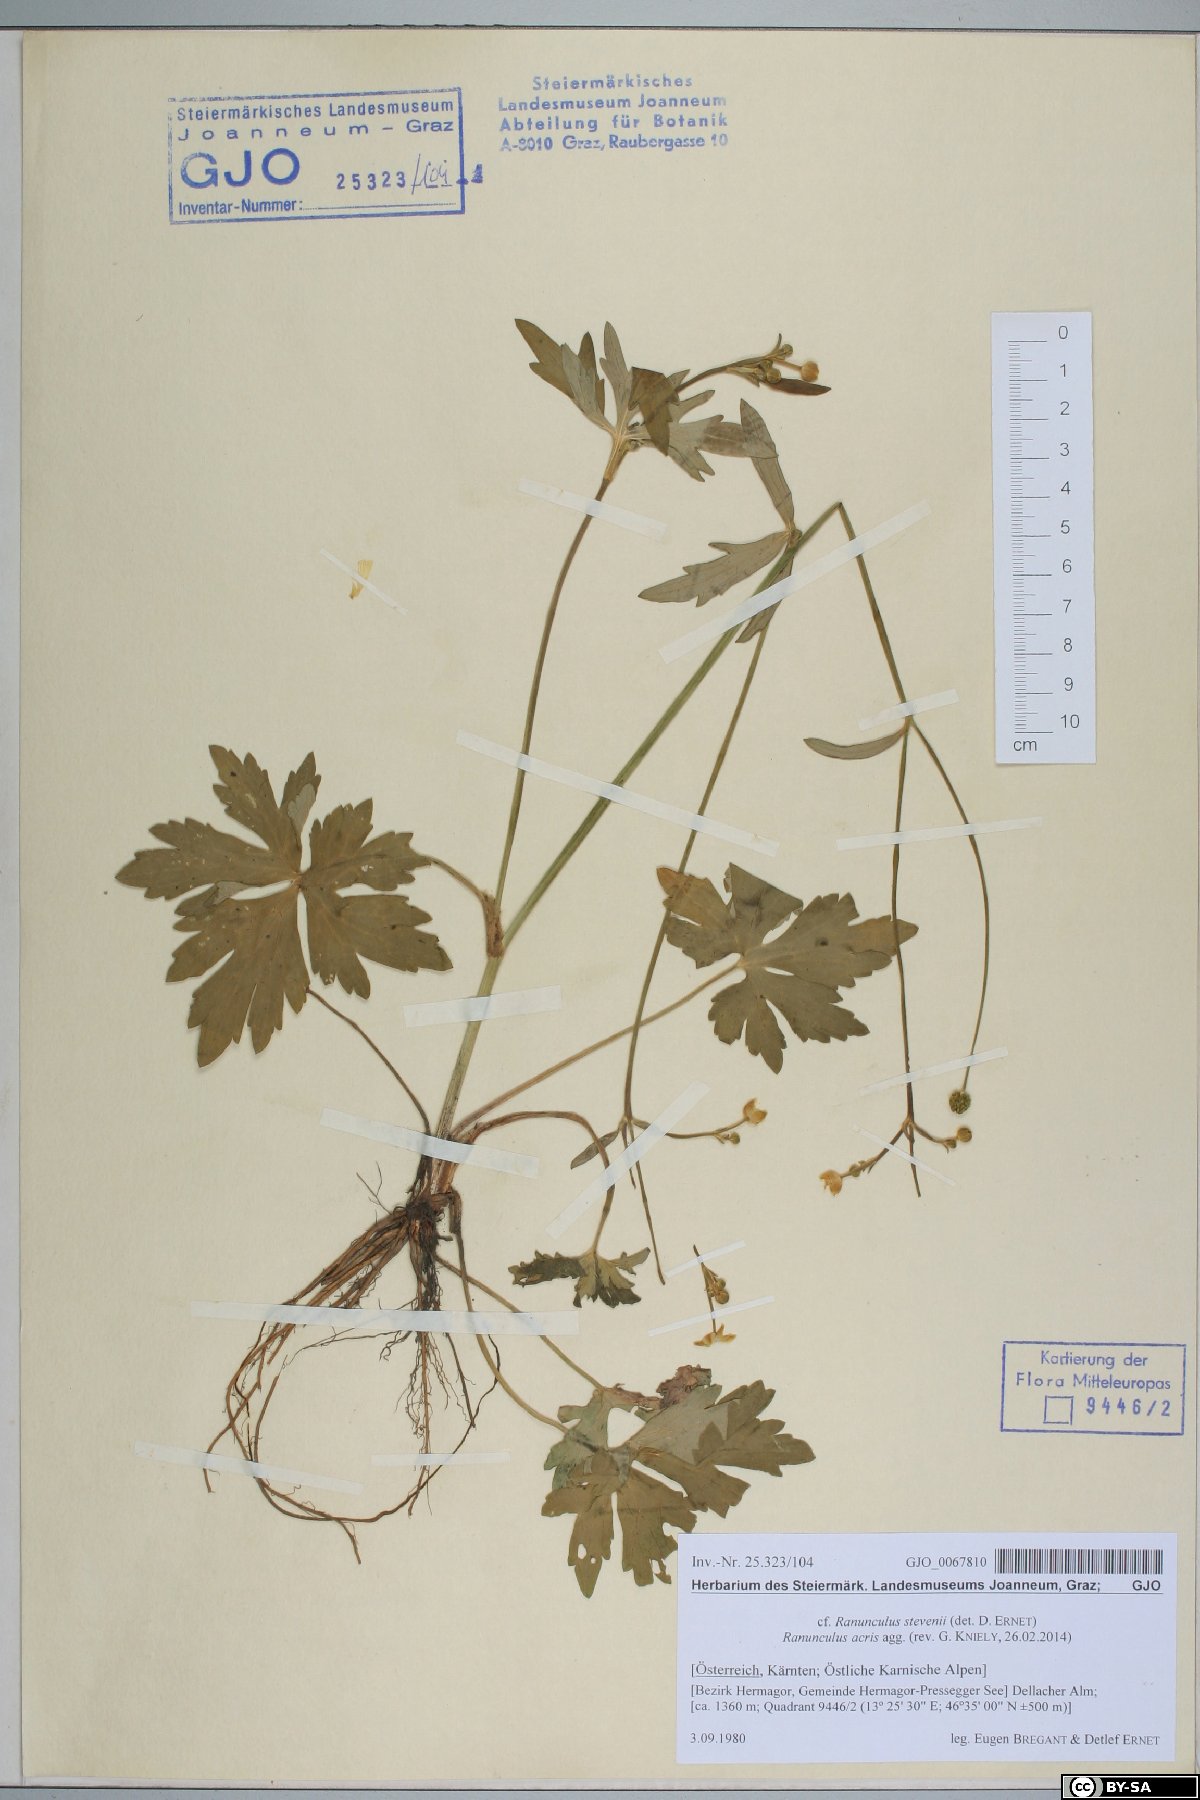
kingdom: Plantae
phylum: Tracheophyta
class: Magnoliopsida
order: Ranunculales
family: Ranunculaceae
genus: Ranunculus
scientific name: Ranunculus acris
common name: Meadow buttercup
